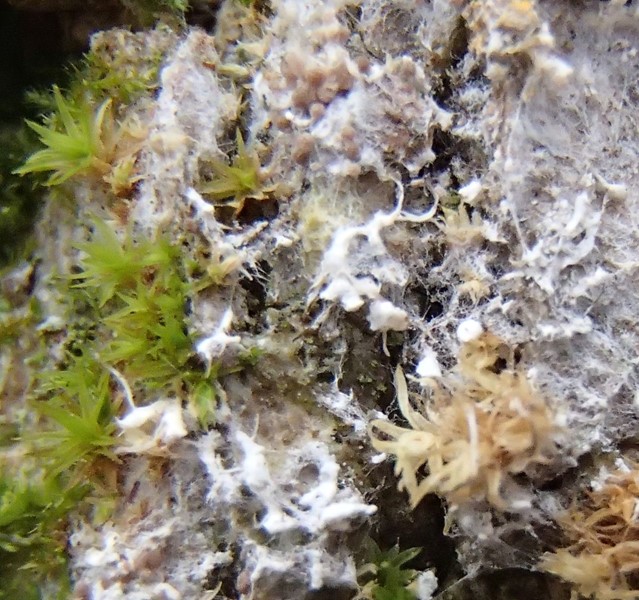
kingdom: Fungi
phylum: Basidiomycota
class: Agaricomycetes
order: Atheliales
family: Atheliaceae
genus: Athelia
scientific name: Athelia arachnoidea
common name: randet barkhinde
